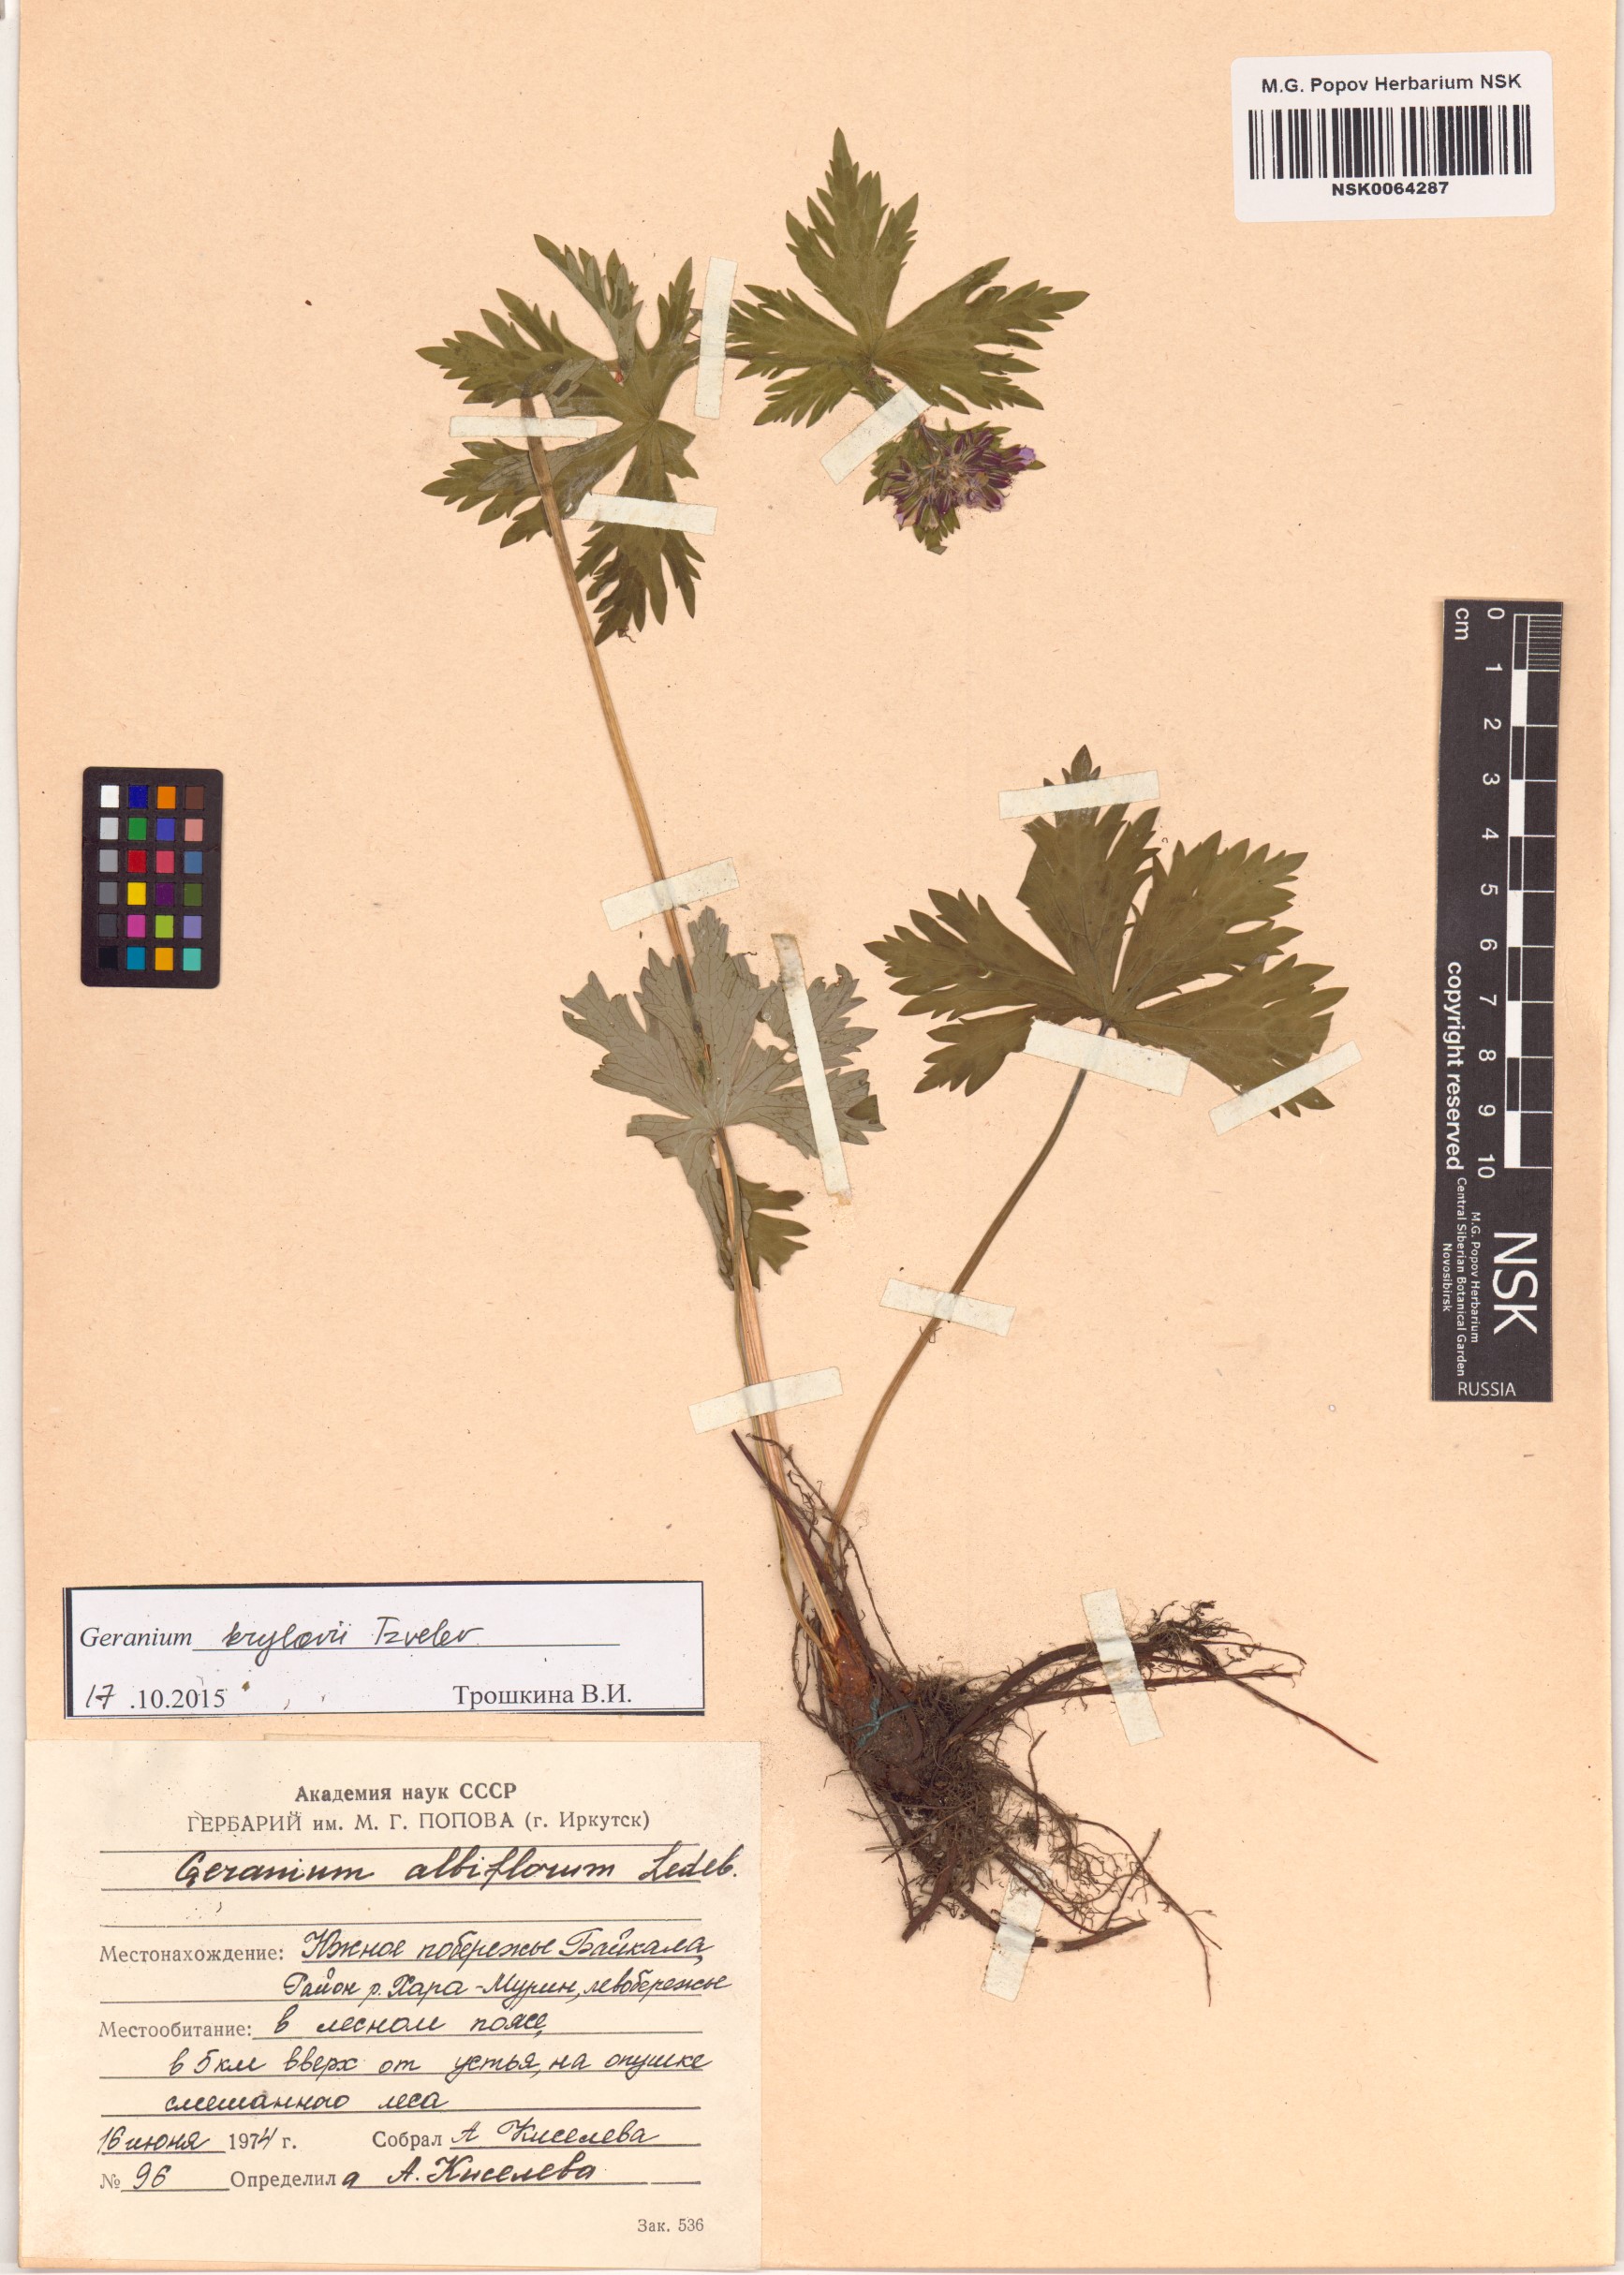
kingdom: Plantae
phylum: Tracheophyta
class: Magnoliopsida
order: Geraniales
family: Geraniaceae
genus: Geranium
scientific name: Geranium sylvaticum
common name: Wood crane's-bill
